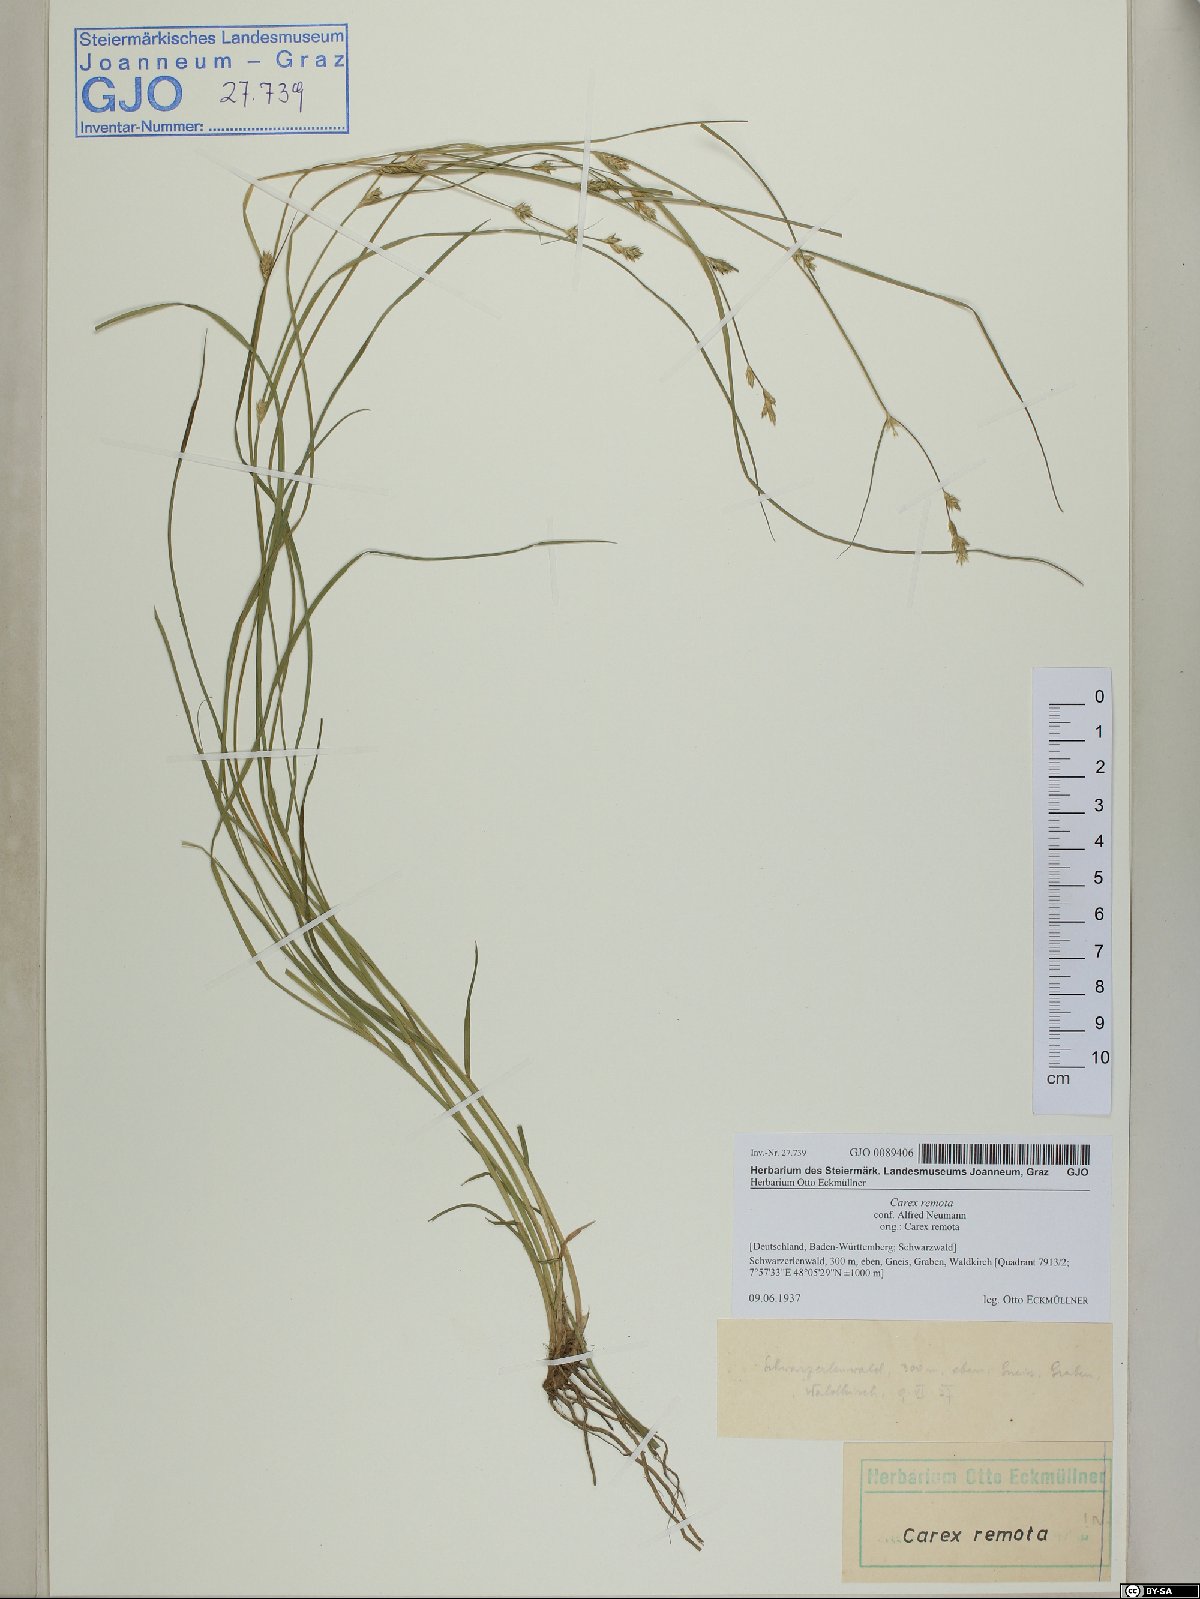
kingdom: Plantae
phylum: Tracheophyta
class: Liliopsida
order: Poales
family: Cyperaceae
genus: Carex
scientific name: Carex remota
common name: Remote sedge
